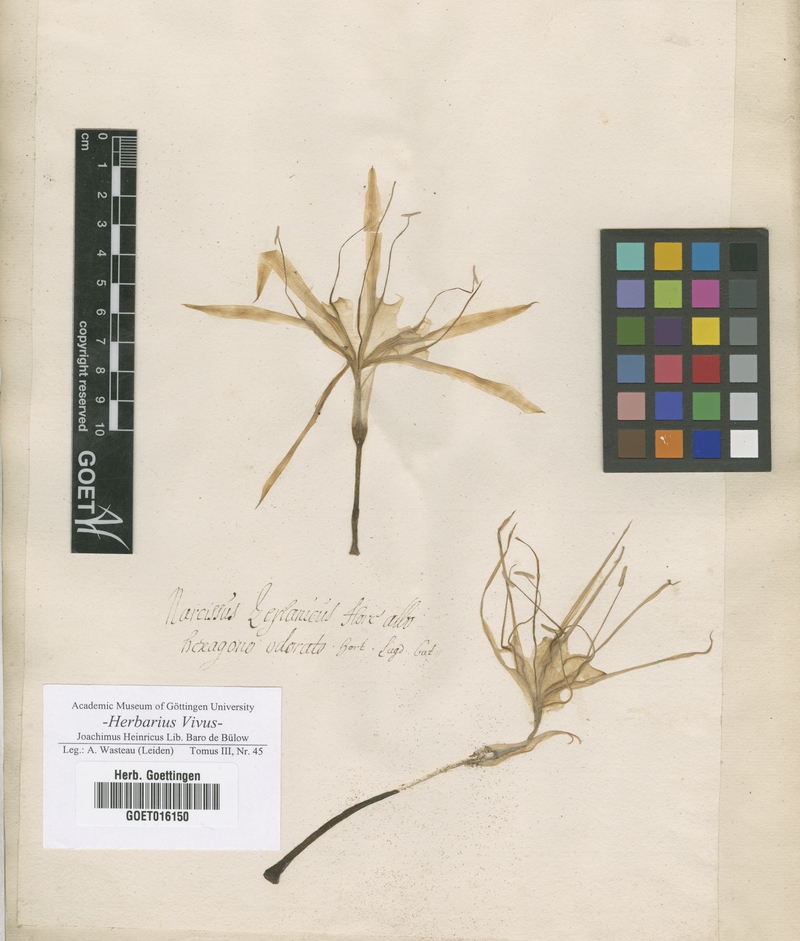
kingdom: Plantae
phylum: Tracheophyta
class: Liliopsida
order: Asparagales
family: Amaryllidaceae
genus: Narcissus
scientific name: Narcissus
